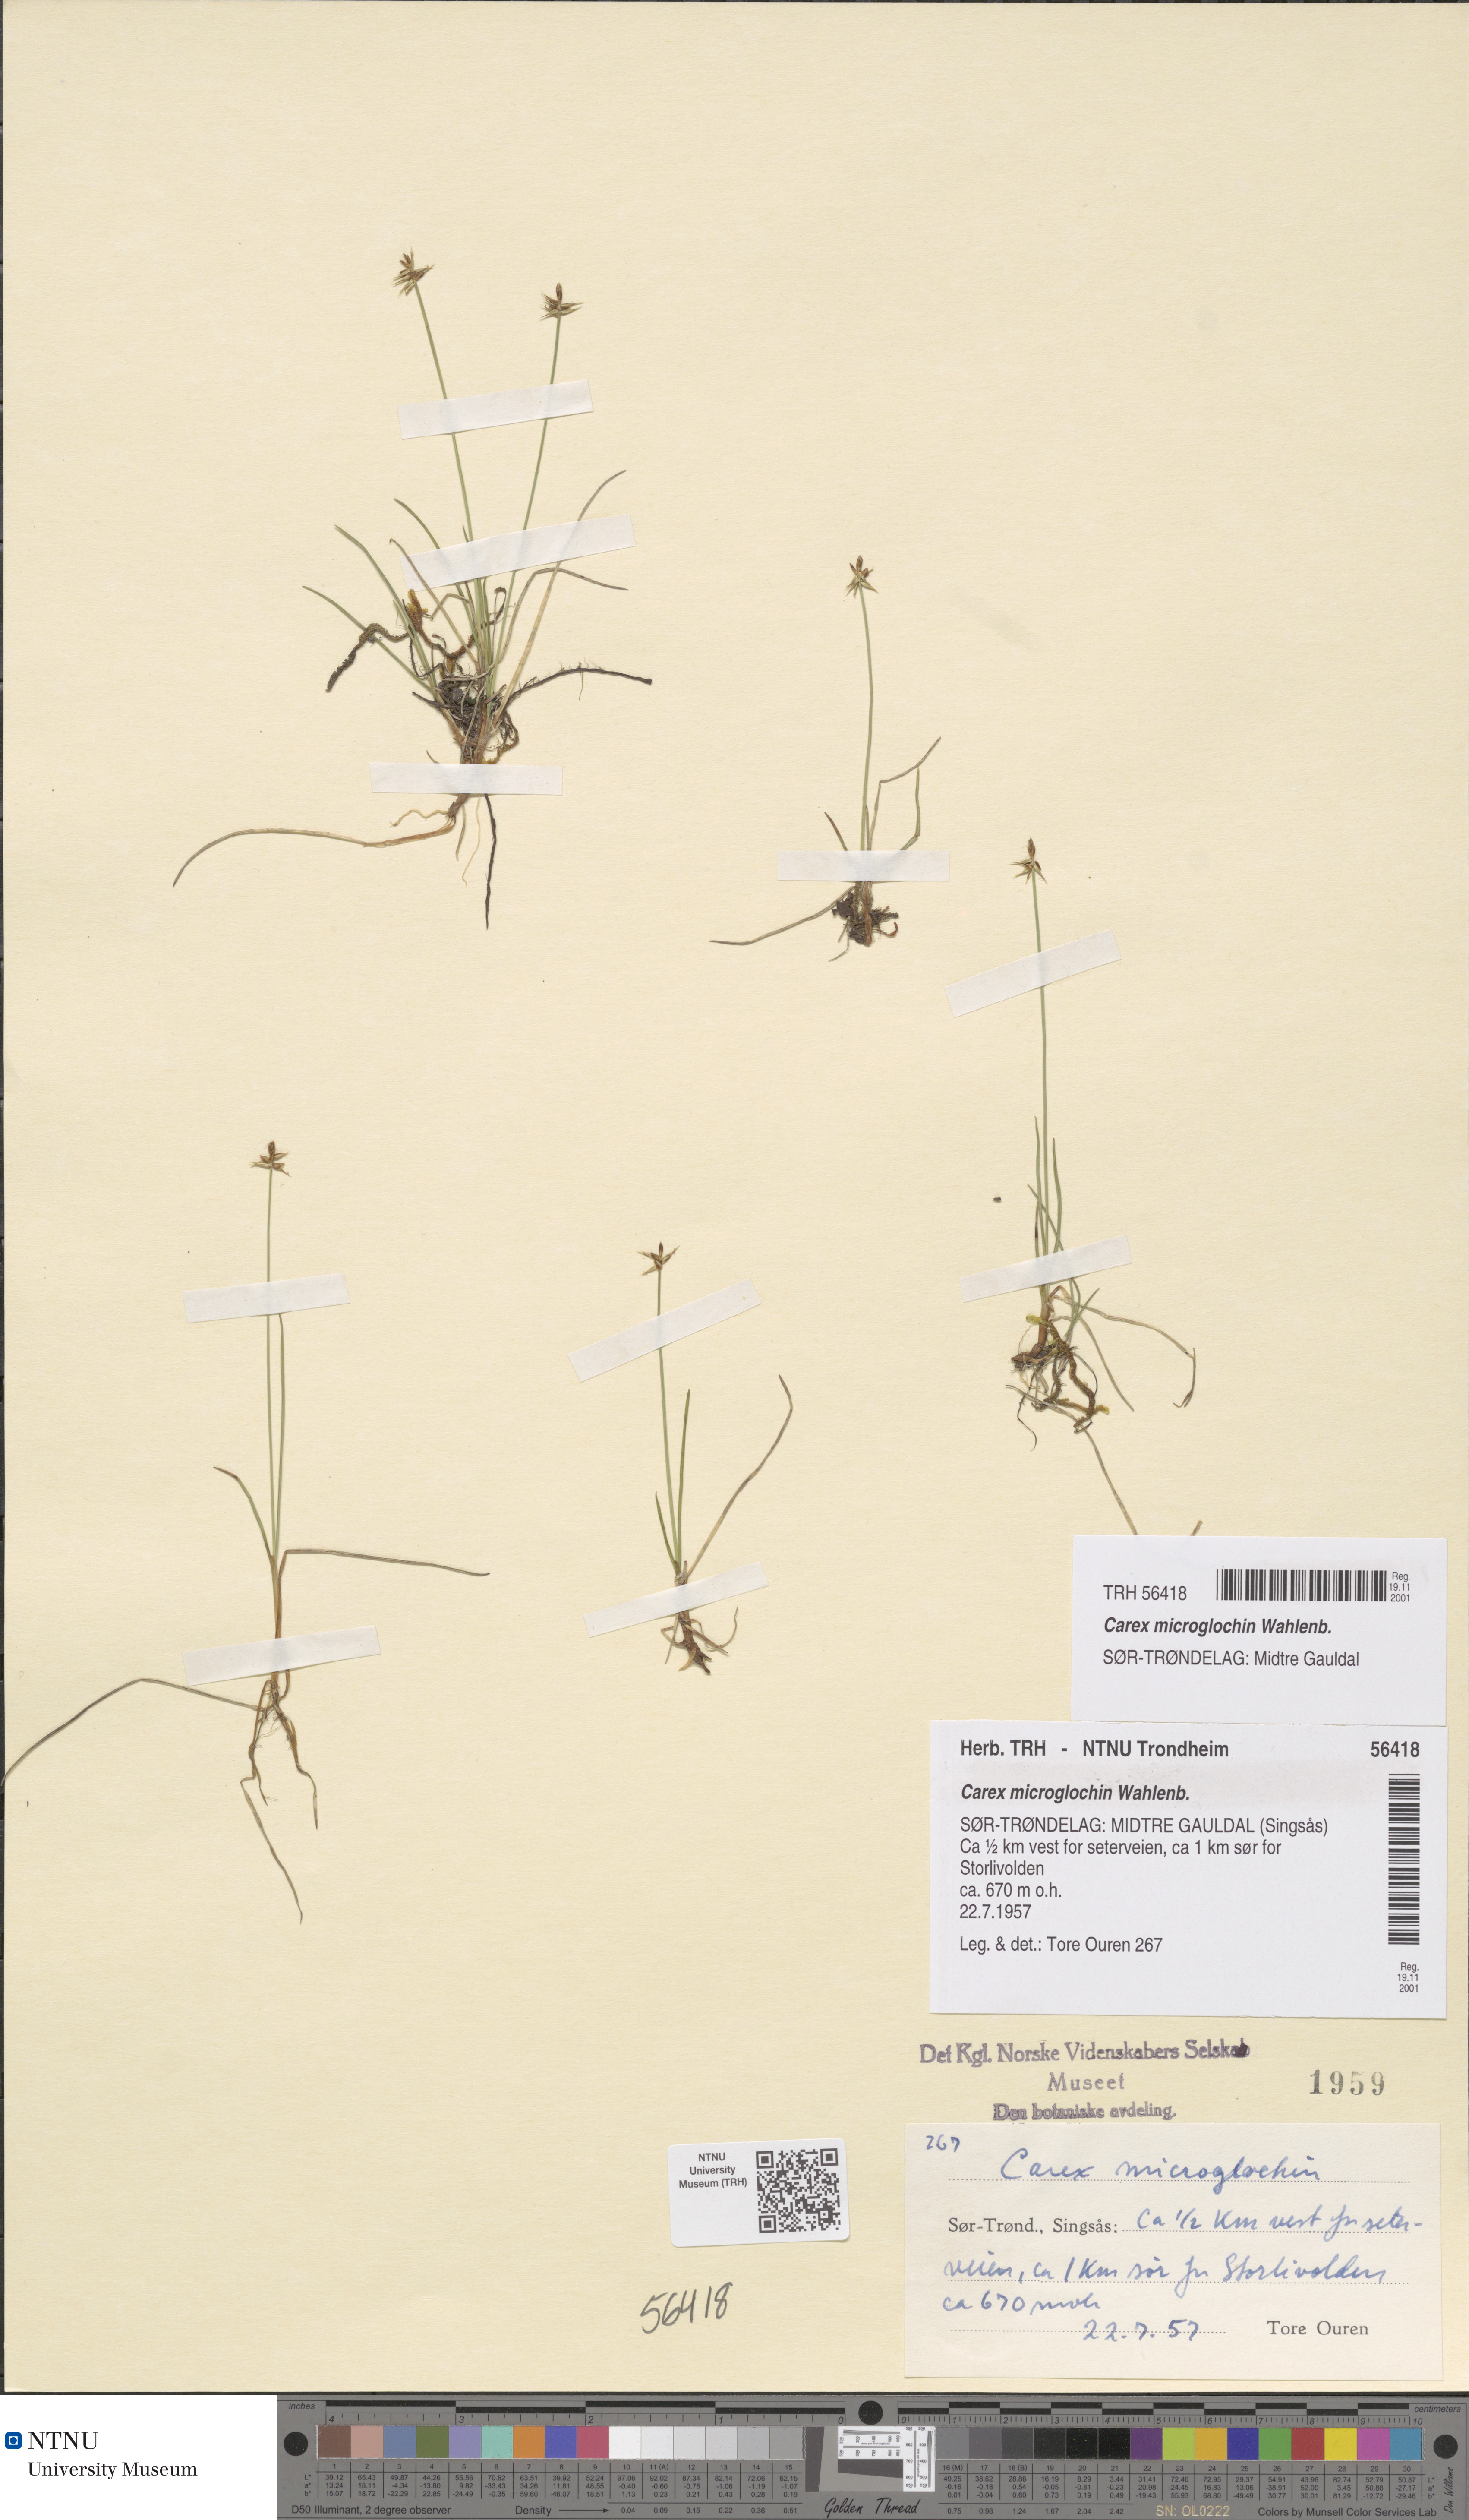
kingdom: Plantae
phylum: Tracheophyta
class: Liliopsida
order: Poales
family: Cyperaceae
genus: Carex
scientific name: Carex microglochin
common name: Bristle sedge
